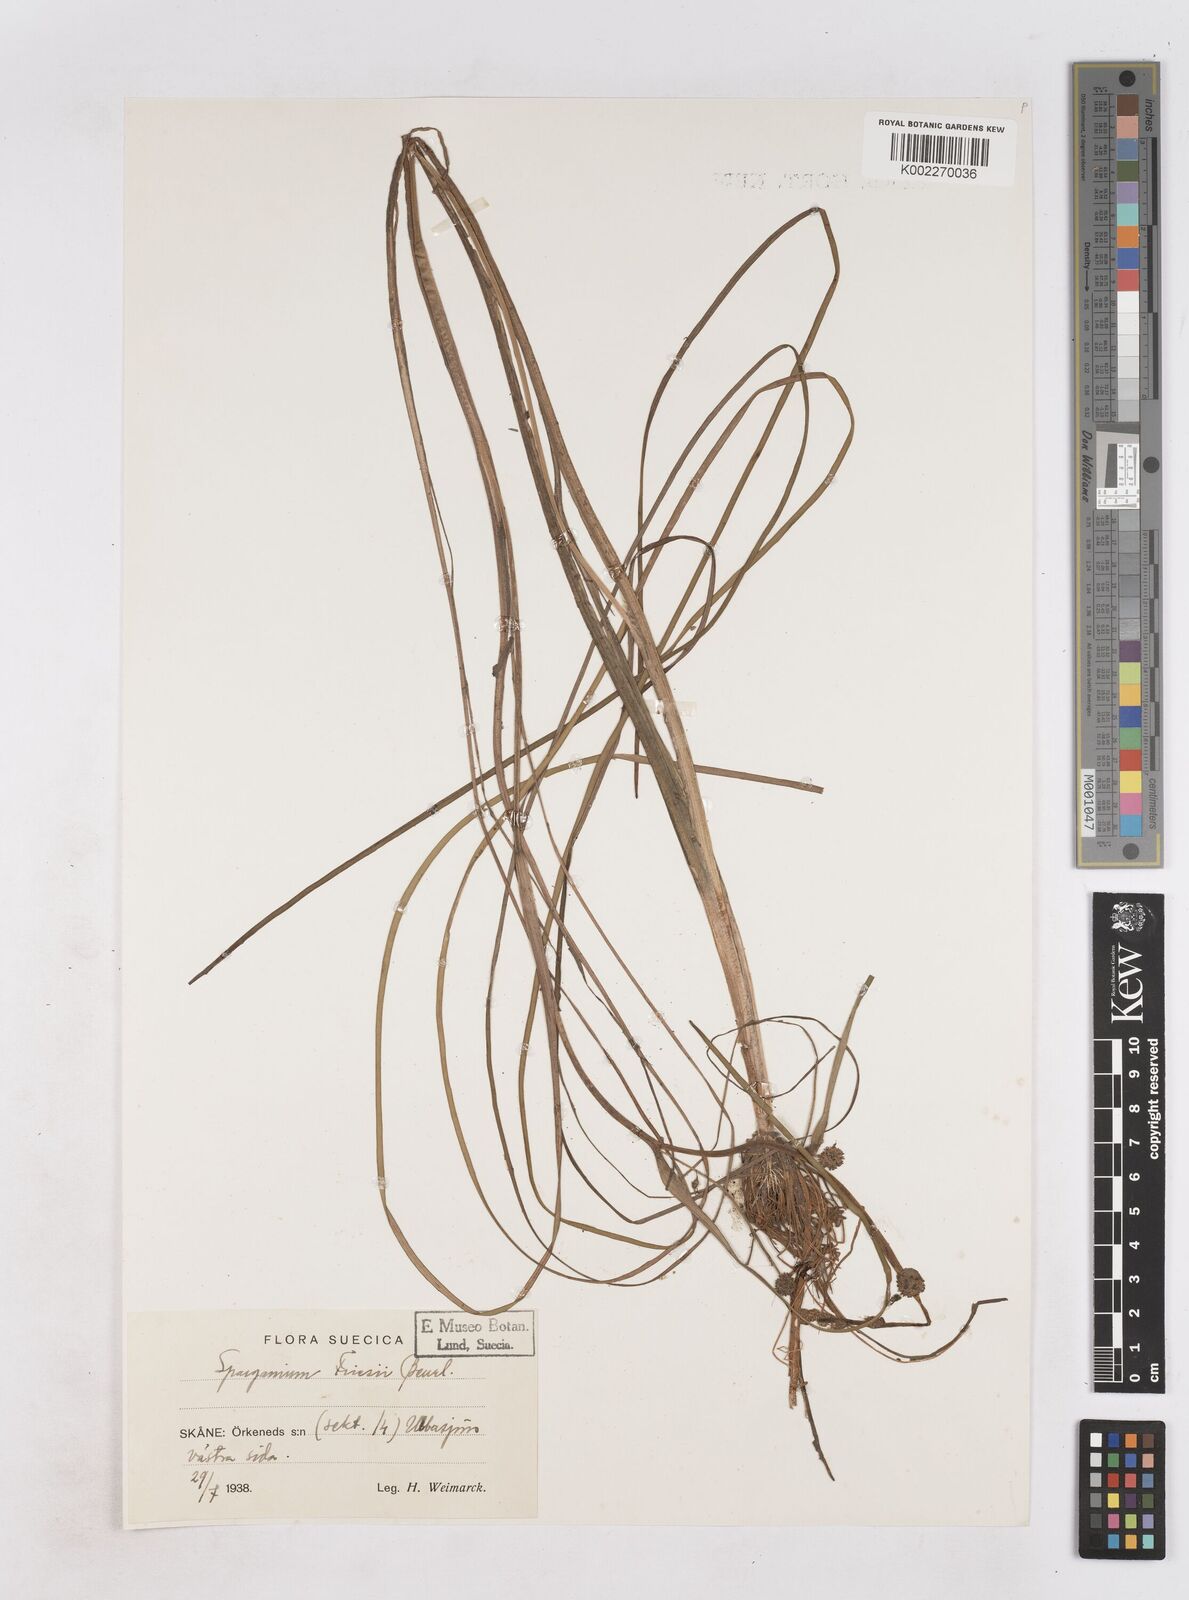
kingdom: Plantae
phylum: Tracheophyta
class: Liliopsida
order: Poales
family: Typhaceae
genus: Sparganium
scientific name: Sparganium gramineum
